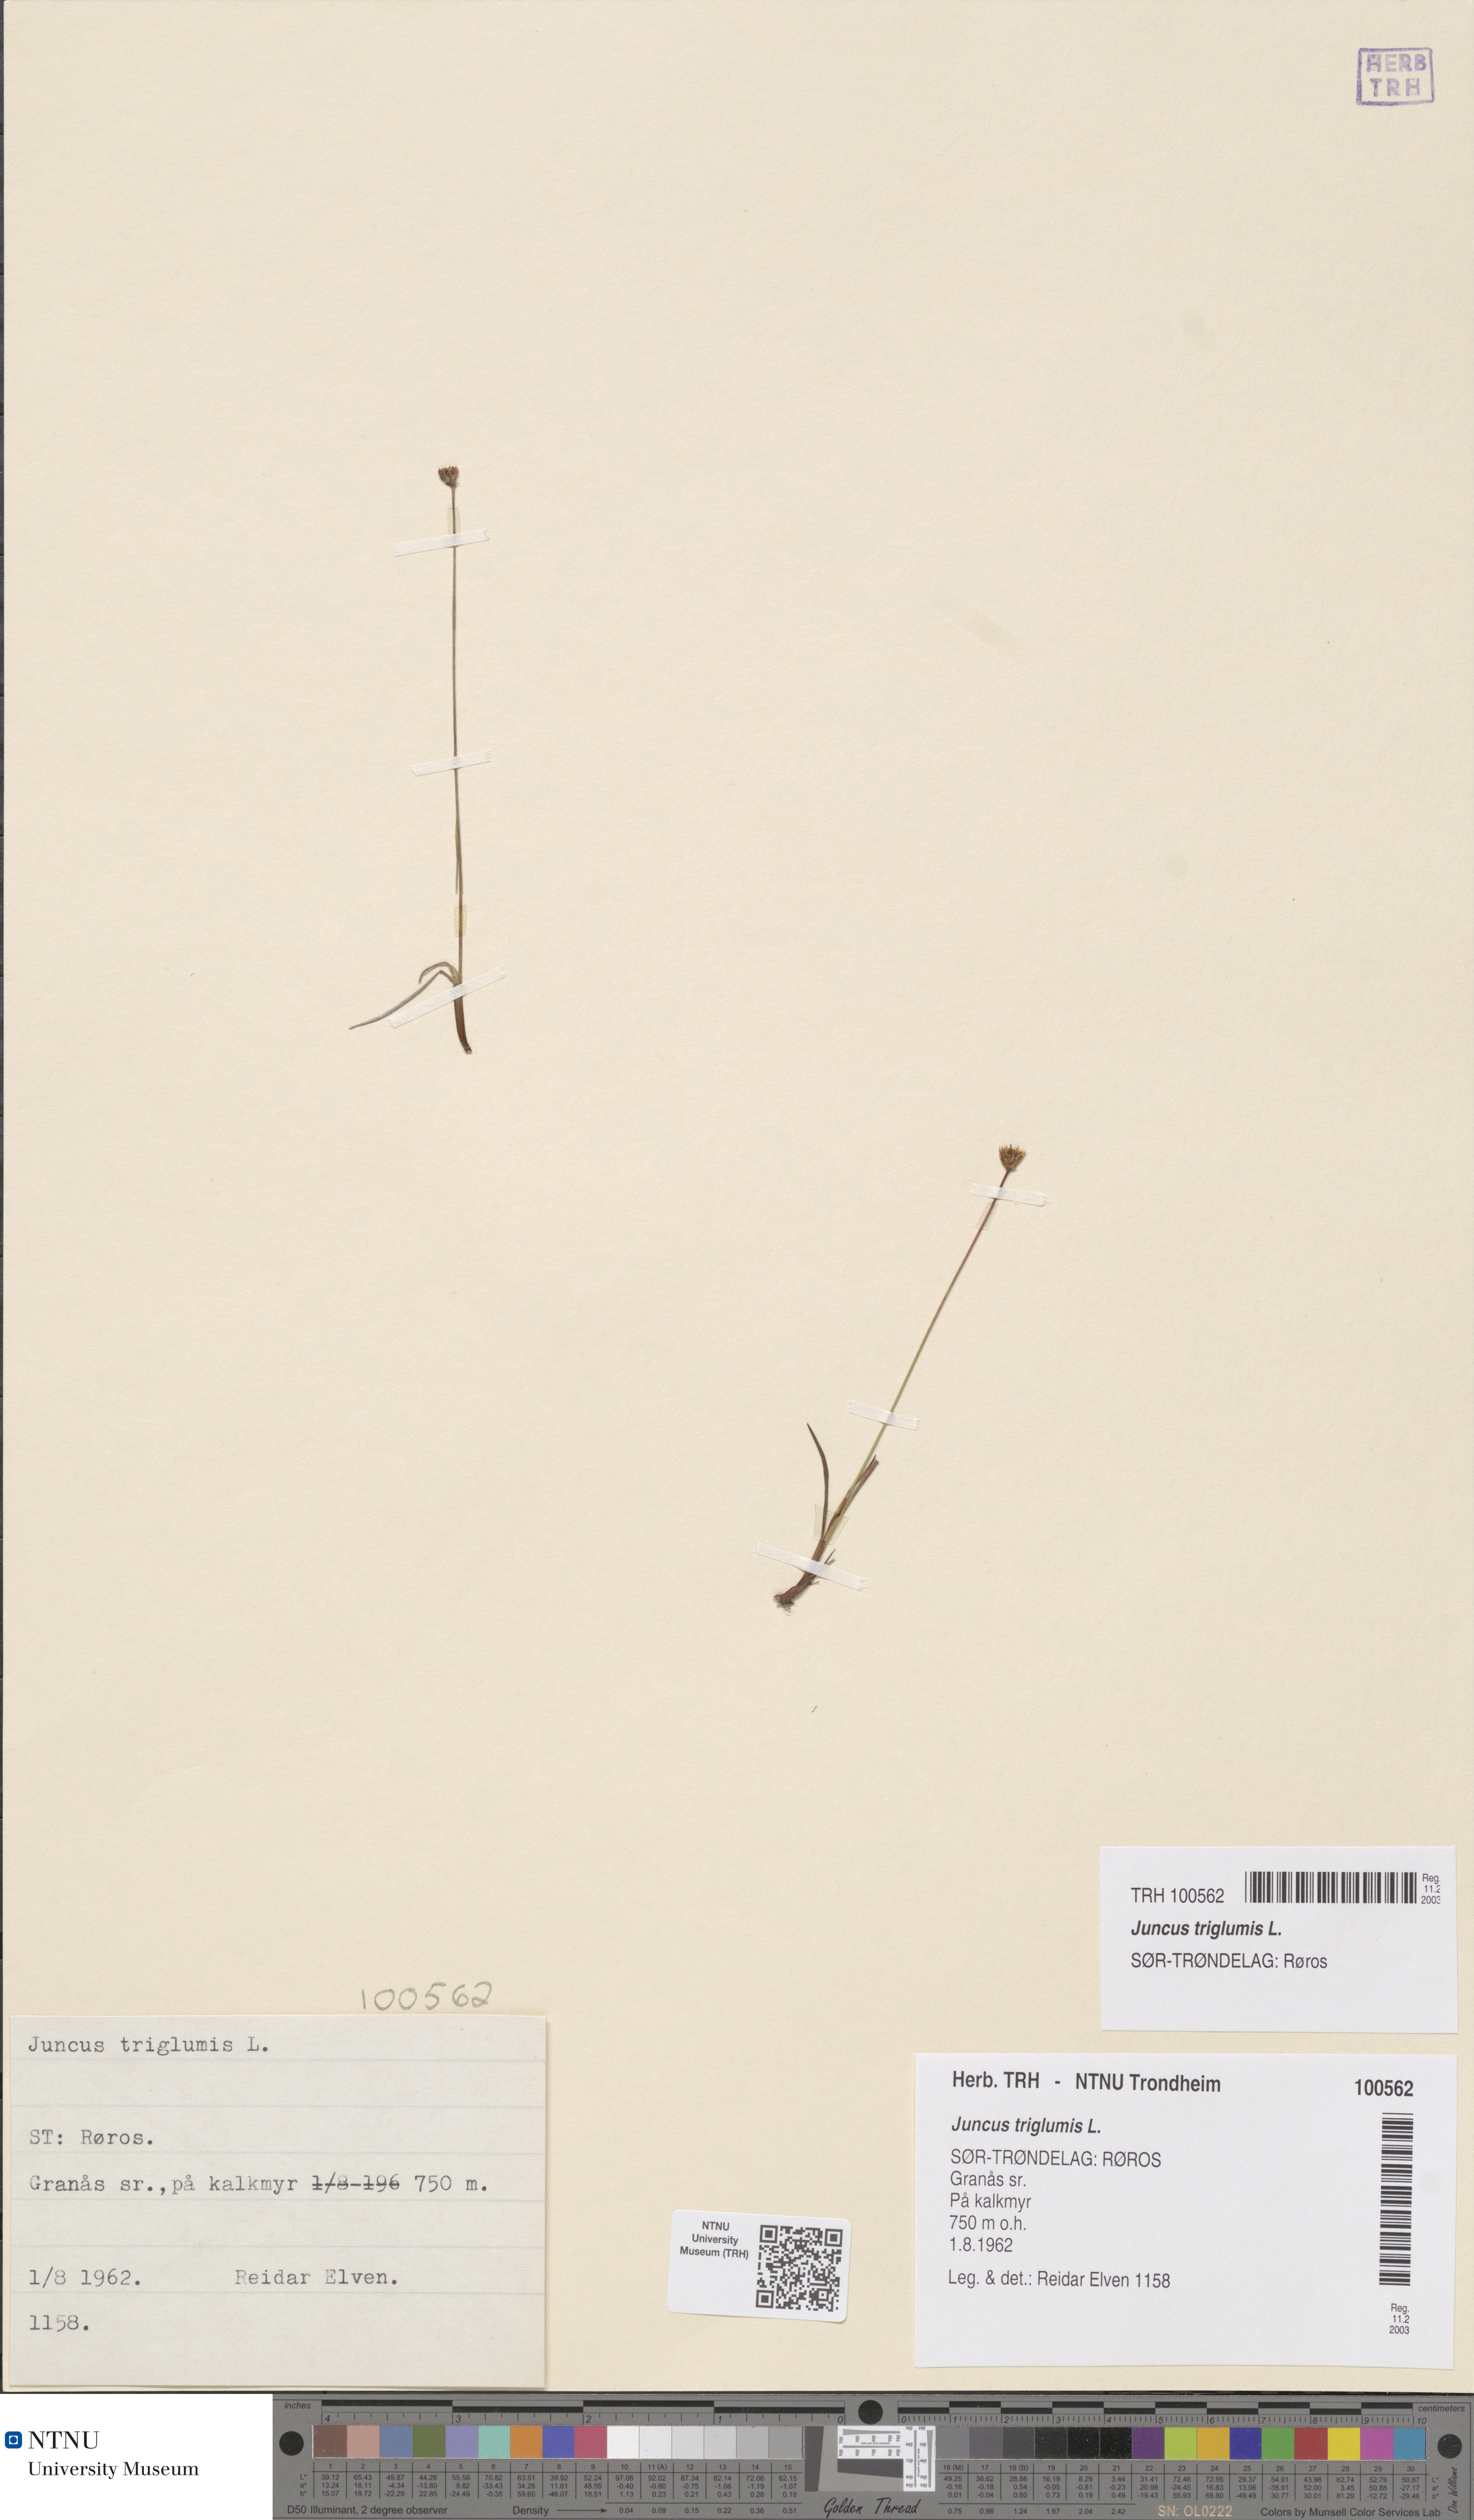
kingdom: Plantae
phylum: Tracheophyta
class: Liliopsida
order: Poales
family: Juncaceae
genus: Juncus
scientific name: Juncus triglumis
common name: Three-flowered rush
